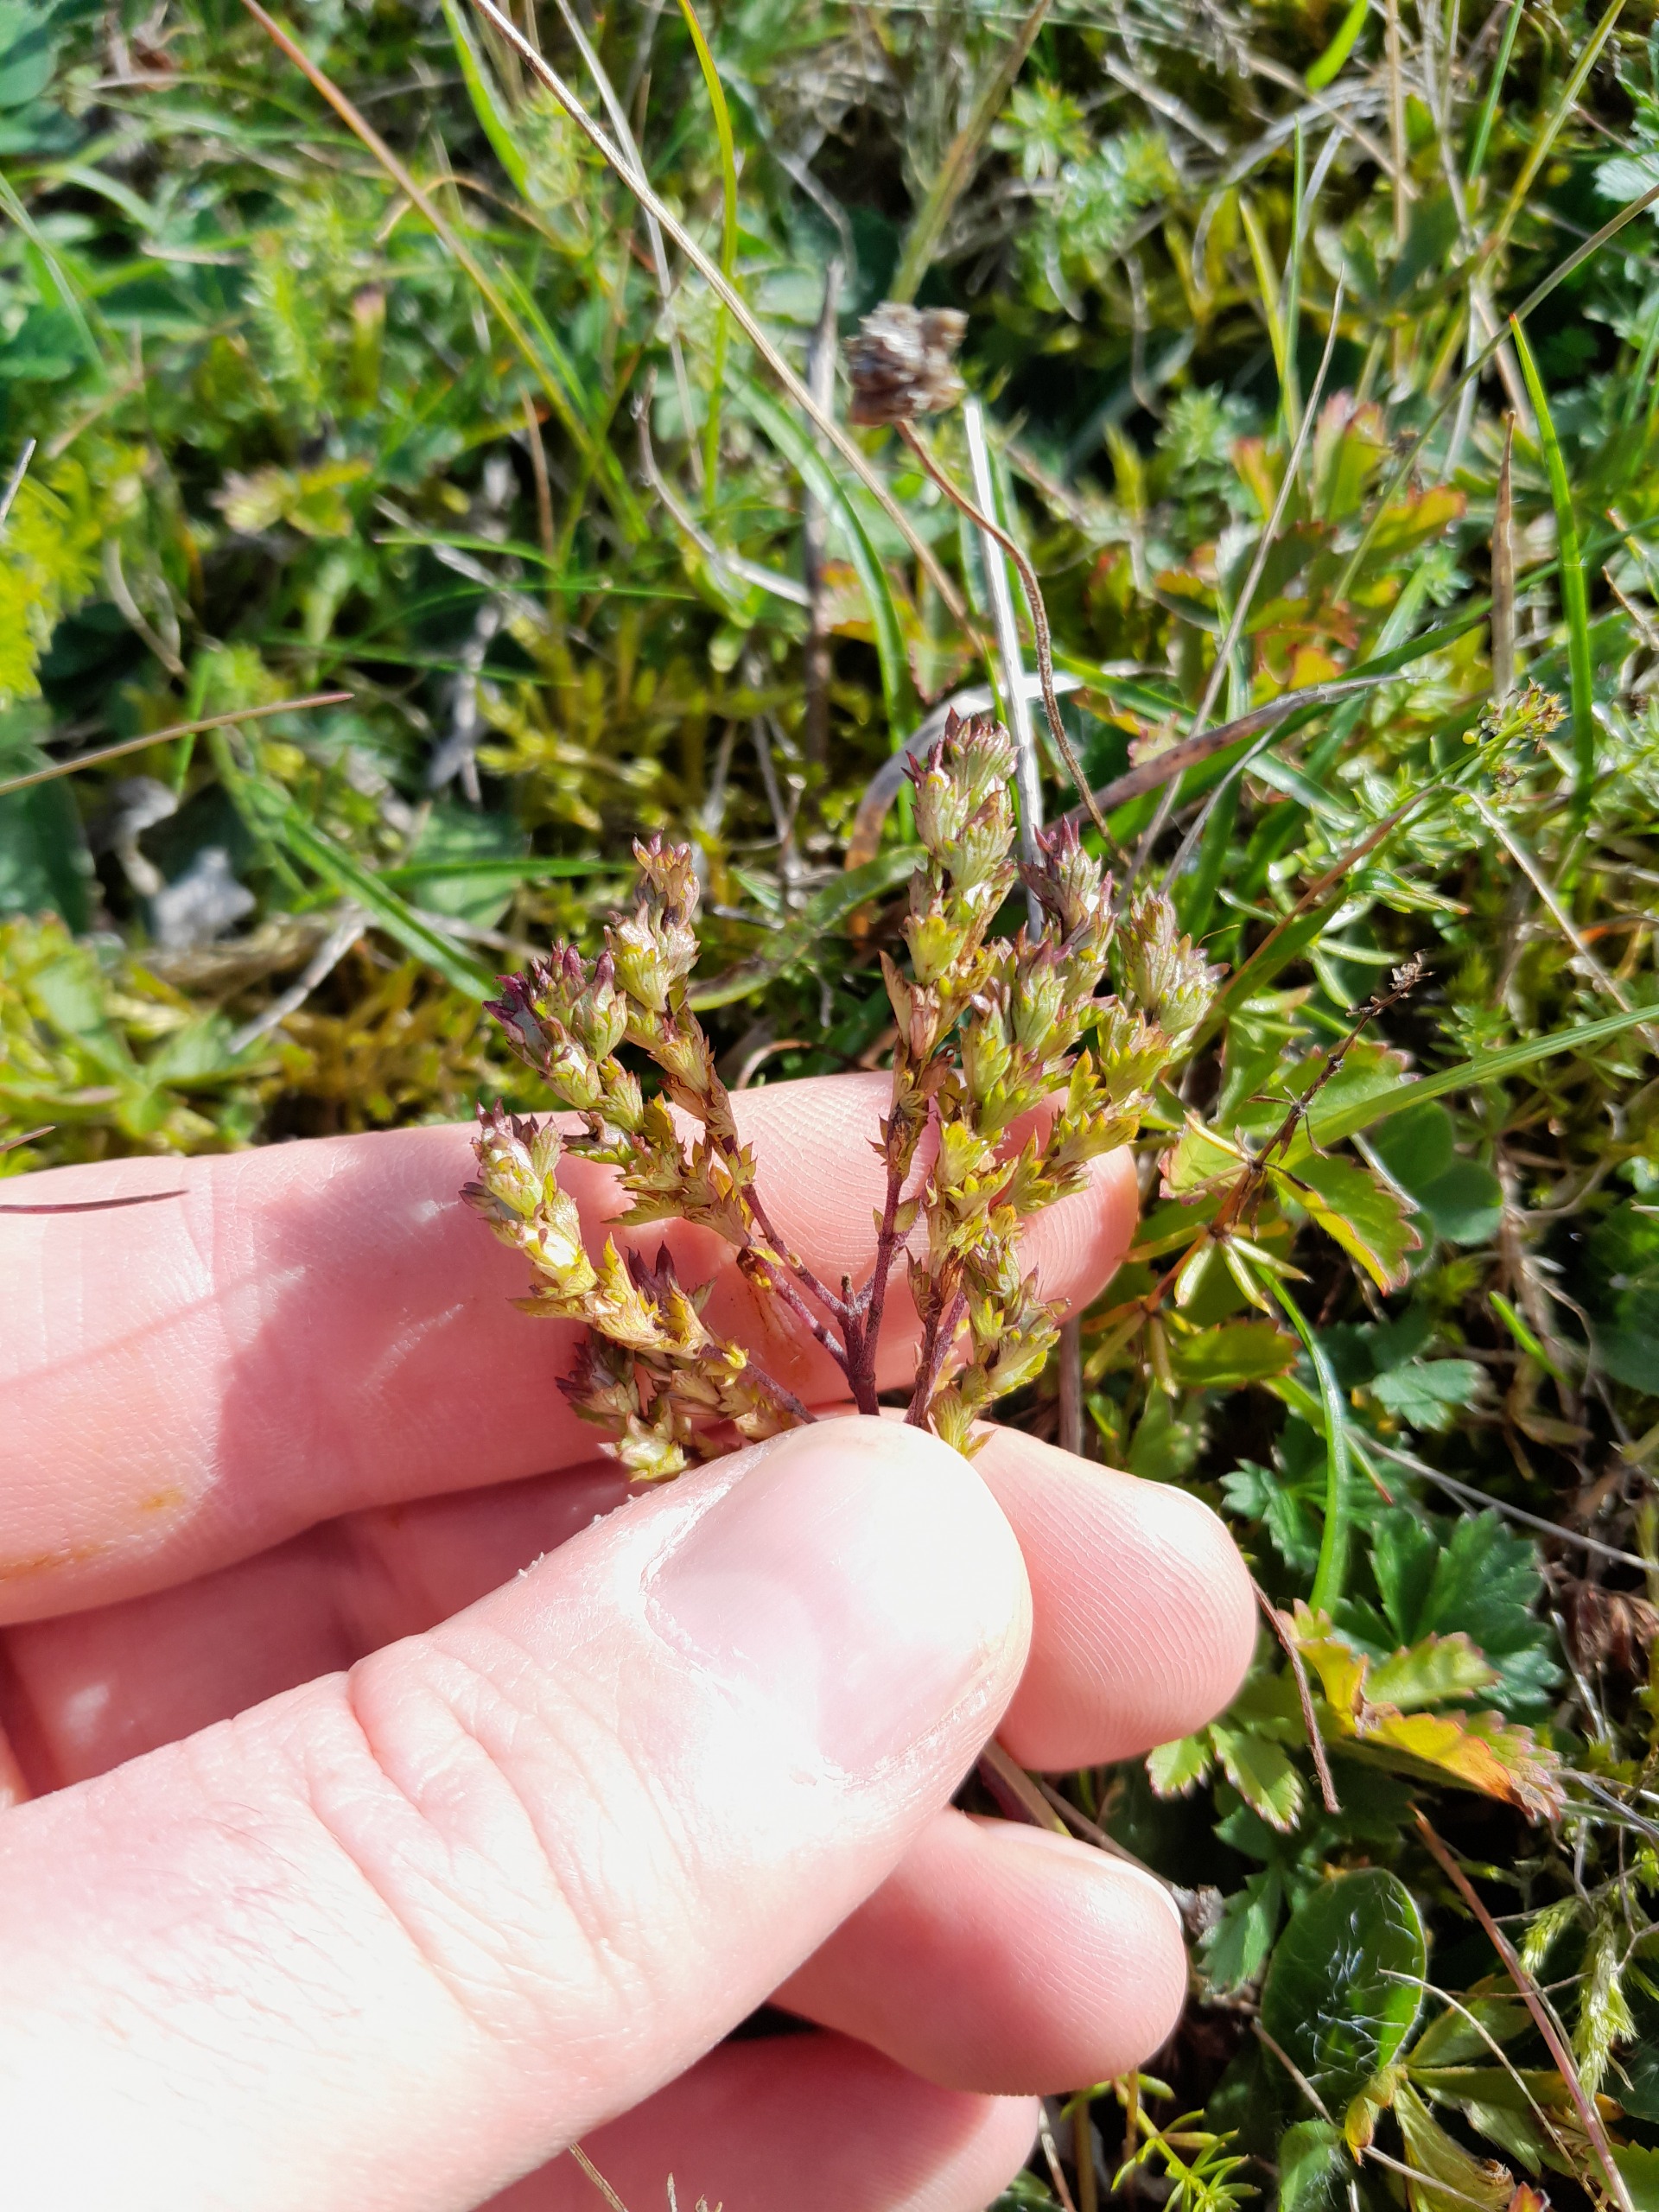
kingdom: Plantae
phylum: Tracheophyta
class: Magnoliopsida
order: Lamiales
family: Orobanchaceae
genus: Euphrasia
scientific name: Euphrasia stricta
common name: Spids øjentrøst
